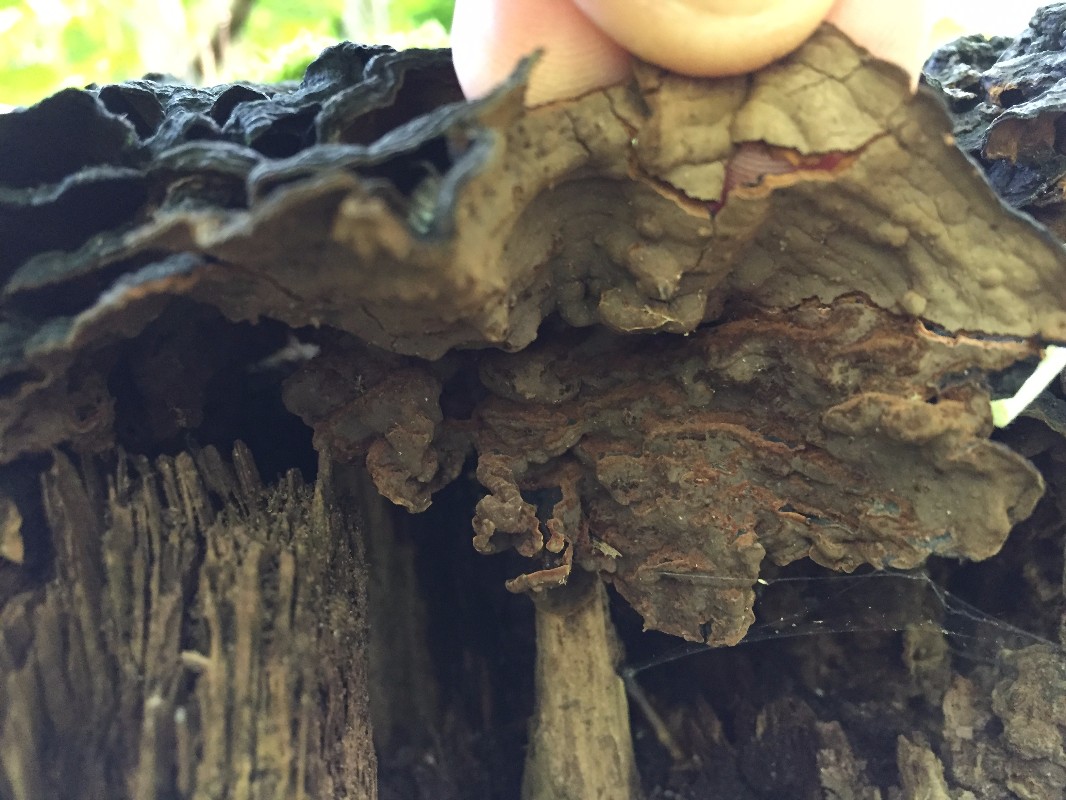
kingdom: Fungi
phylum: Basidiomycota
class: Agaricomycetes
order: Hymenochaetales
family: Hymenochaetaceae
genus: Hymenochaete
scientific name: Hymenochaete rubiginosa
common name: stiv ruslædersvamp
